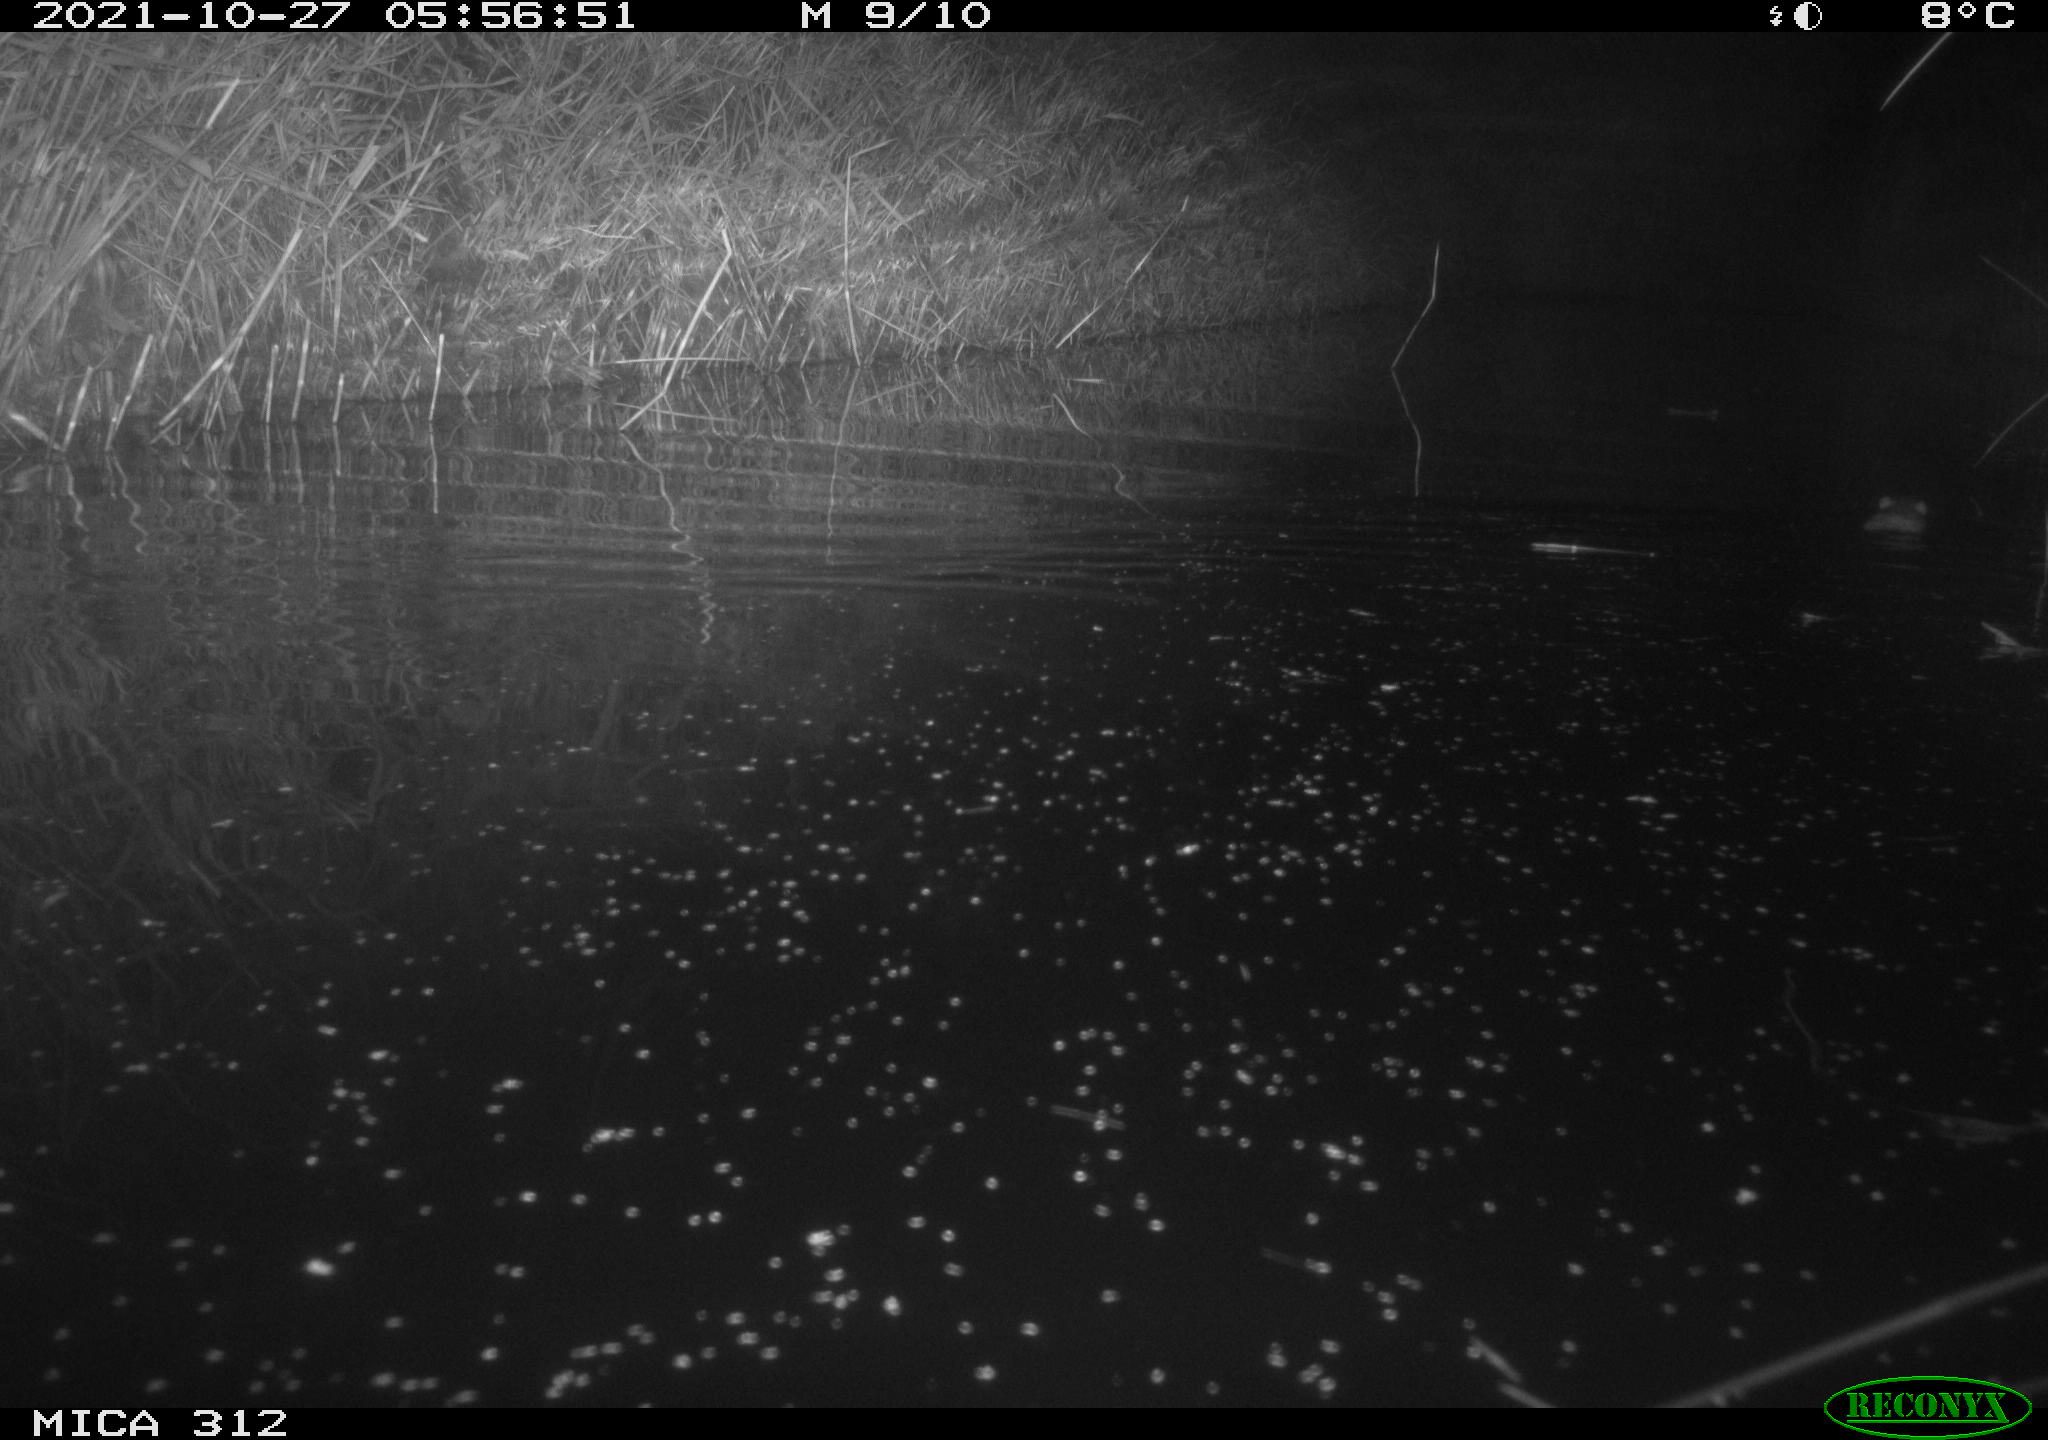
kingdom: Animalia
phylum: Chordata
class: Mammalia
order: Rodentia
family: Muridae
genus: Rattus
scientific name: Rattus norvegicus
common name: Brown rat
